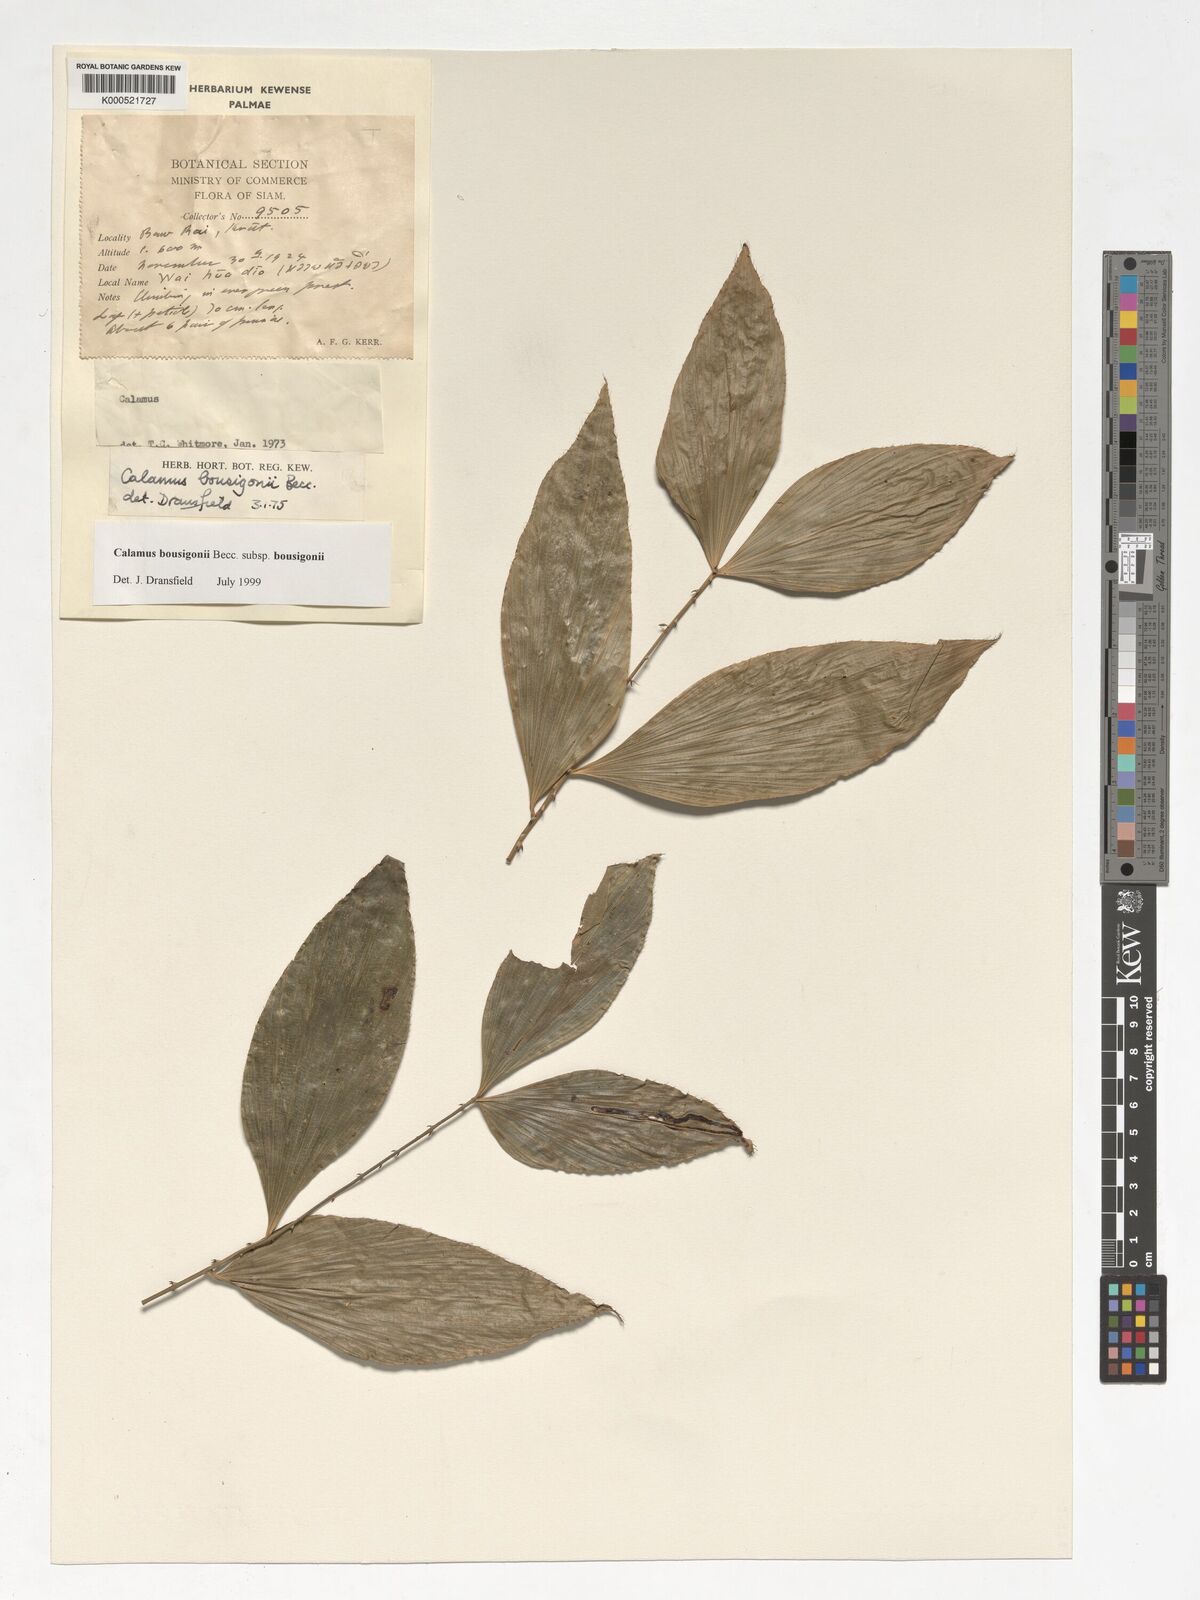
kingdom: Plantae
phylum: Tracheophyta
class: Liliopsida
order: Arecales
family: Arecaceae
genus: Calamus
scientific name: Calamus bousigonii
